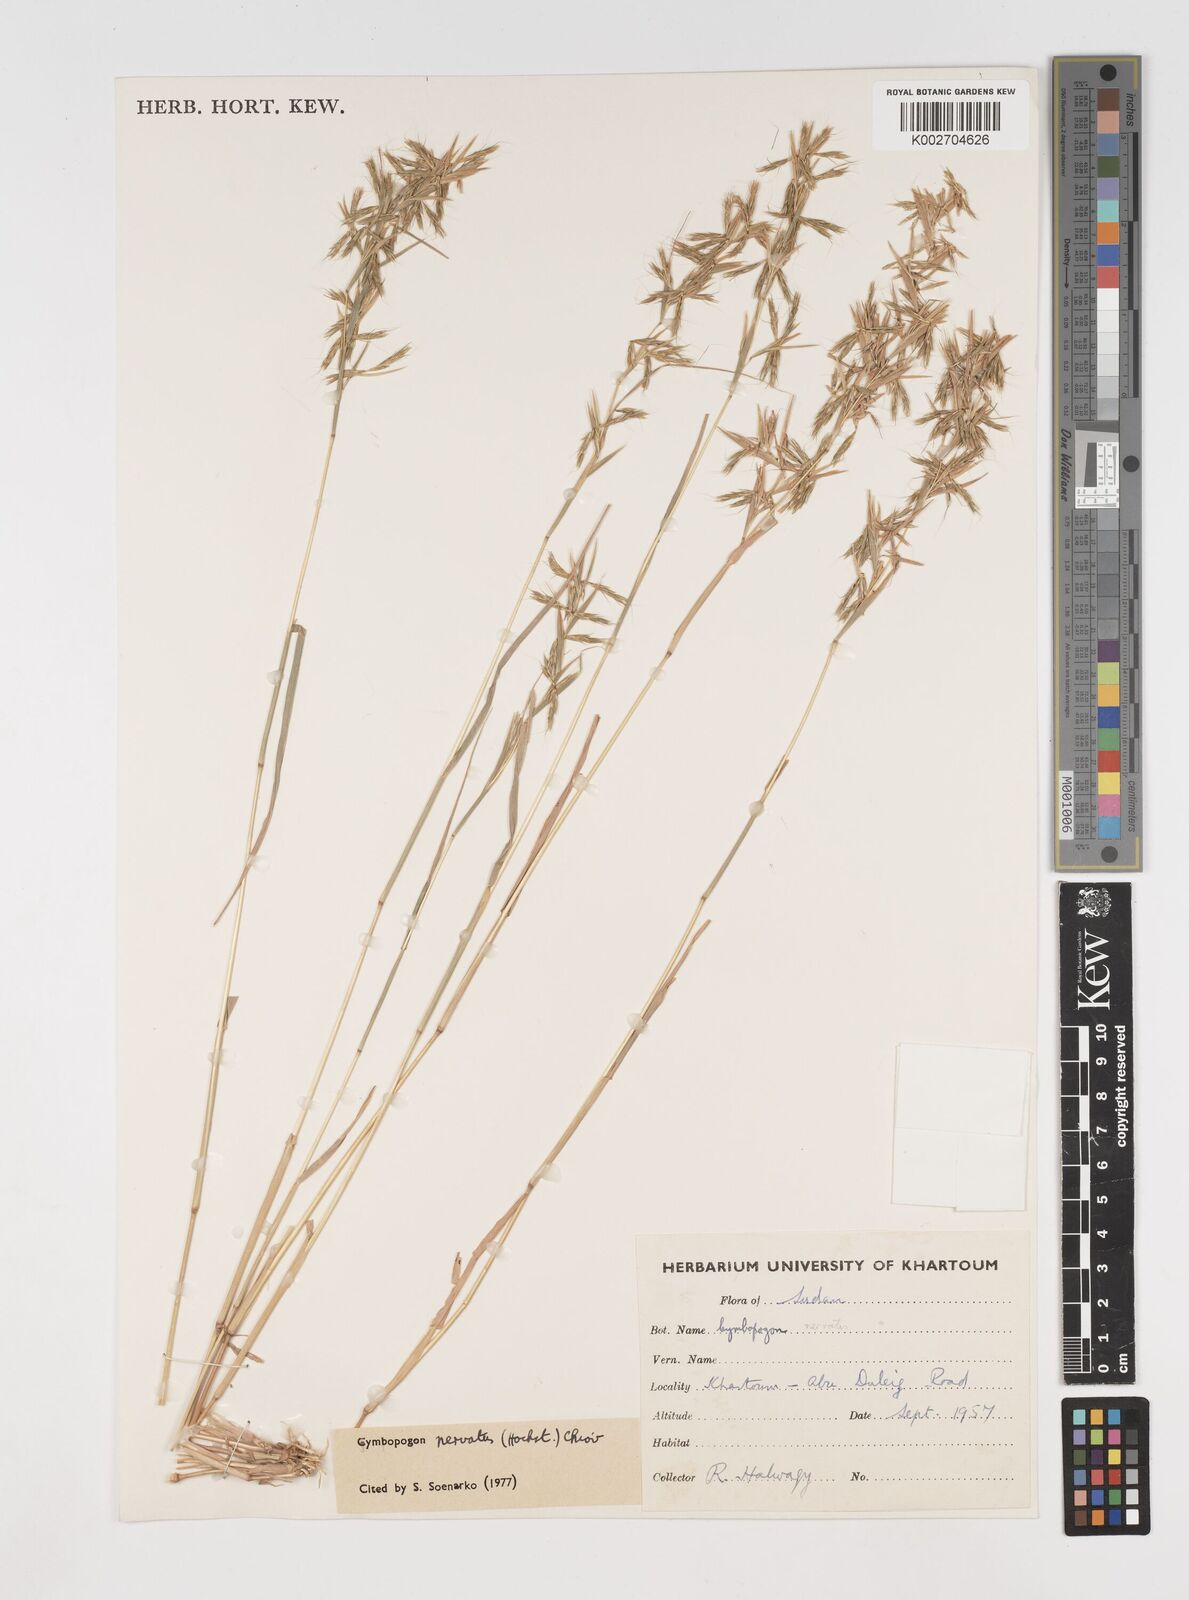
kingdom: Plantae
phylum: Tracheophyta
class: Liliopsida
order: Poales
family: Poaceae
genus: Cymbopogon
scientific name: Cymbopogon nervatus
